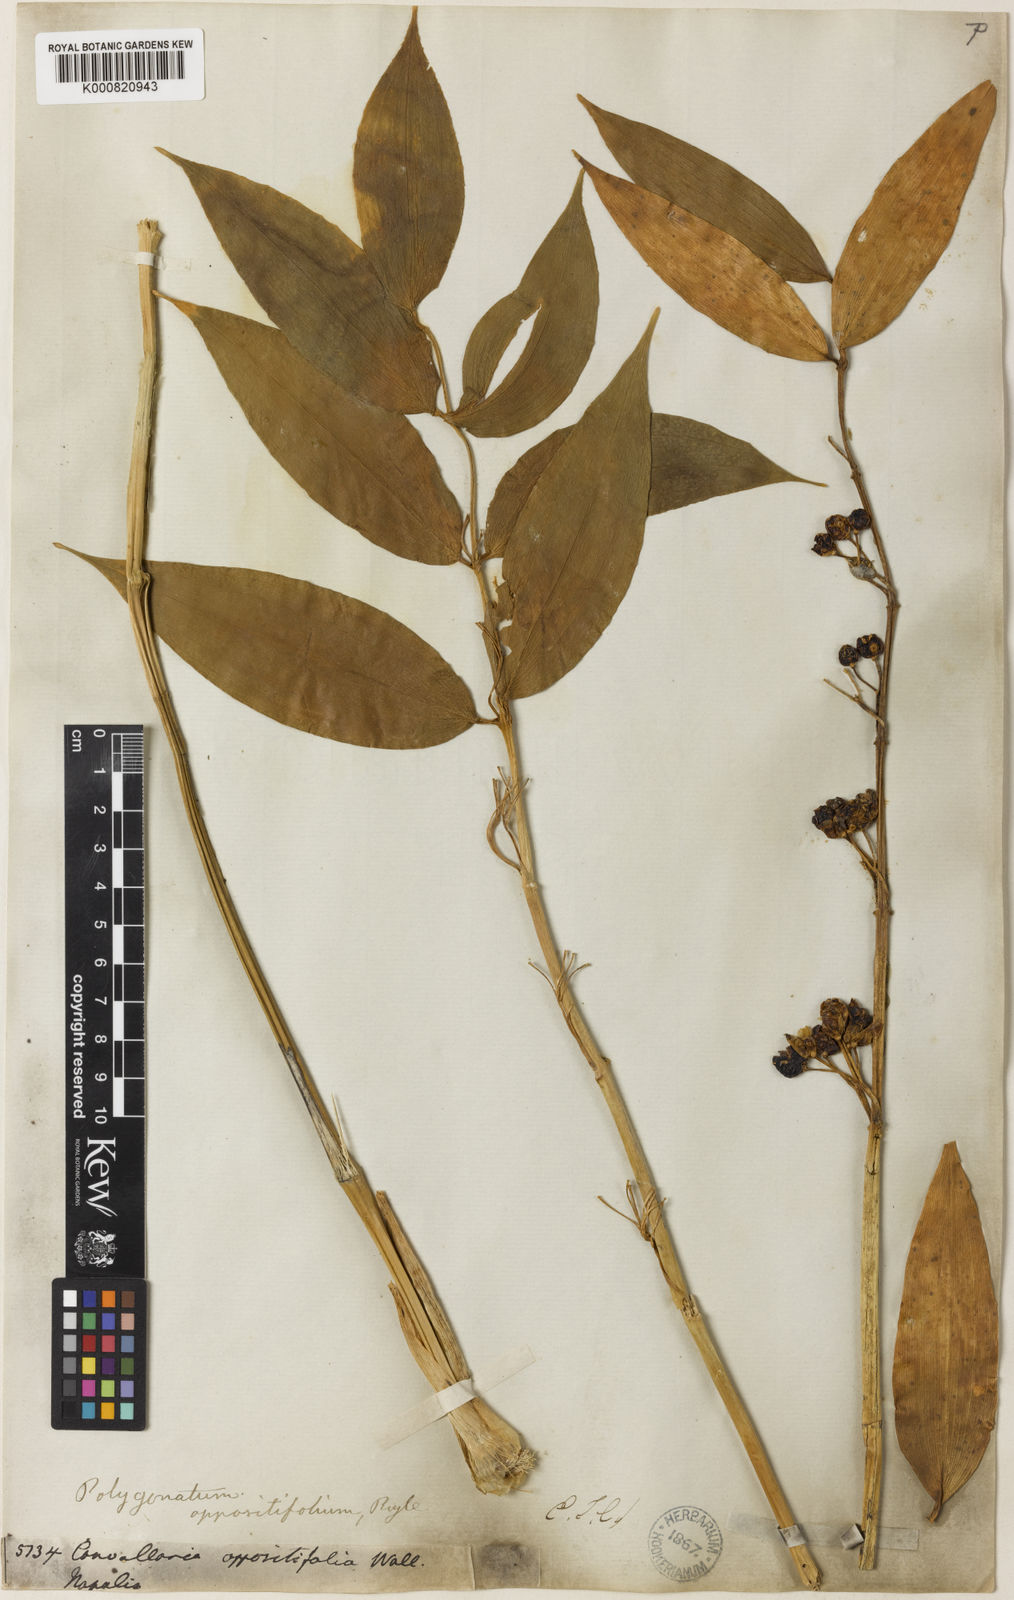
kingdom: Plantae
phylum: Tracheophyta
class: Liliopsida
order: Asparagales
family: Asparagaceae
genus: Polygonatum
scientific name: Polygonatum oppositifolium
